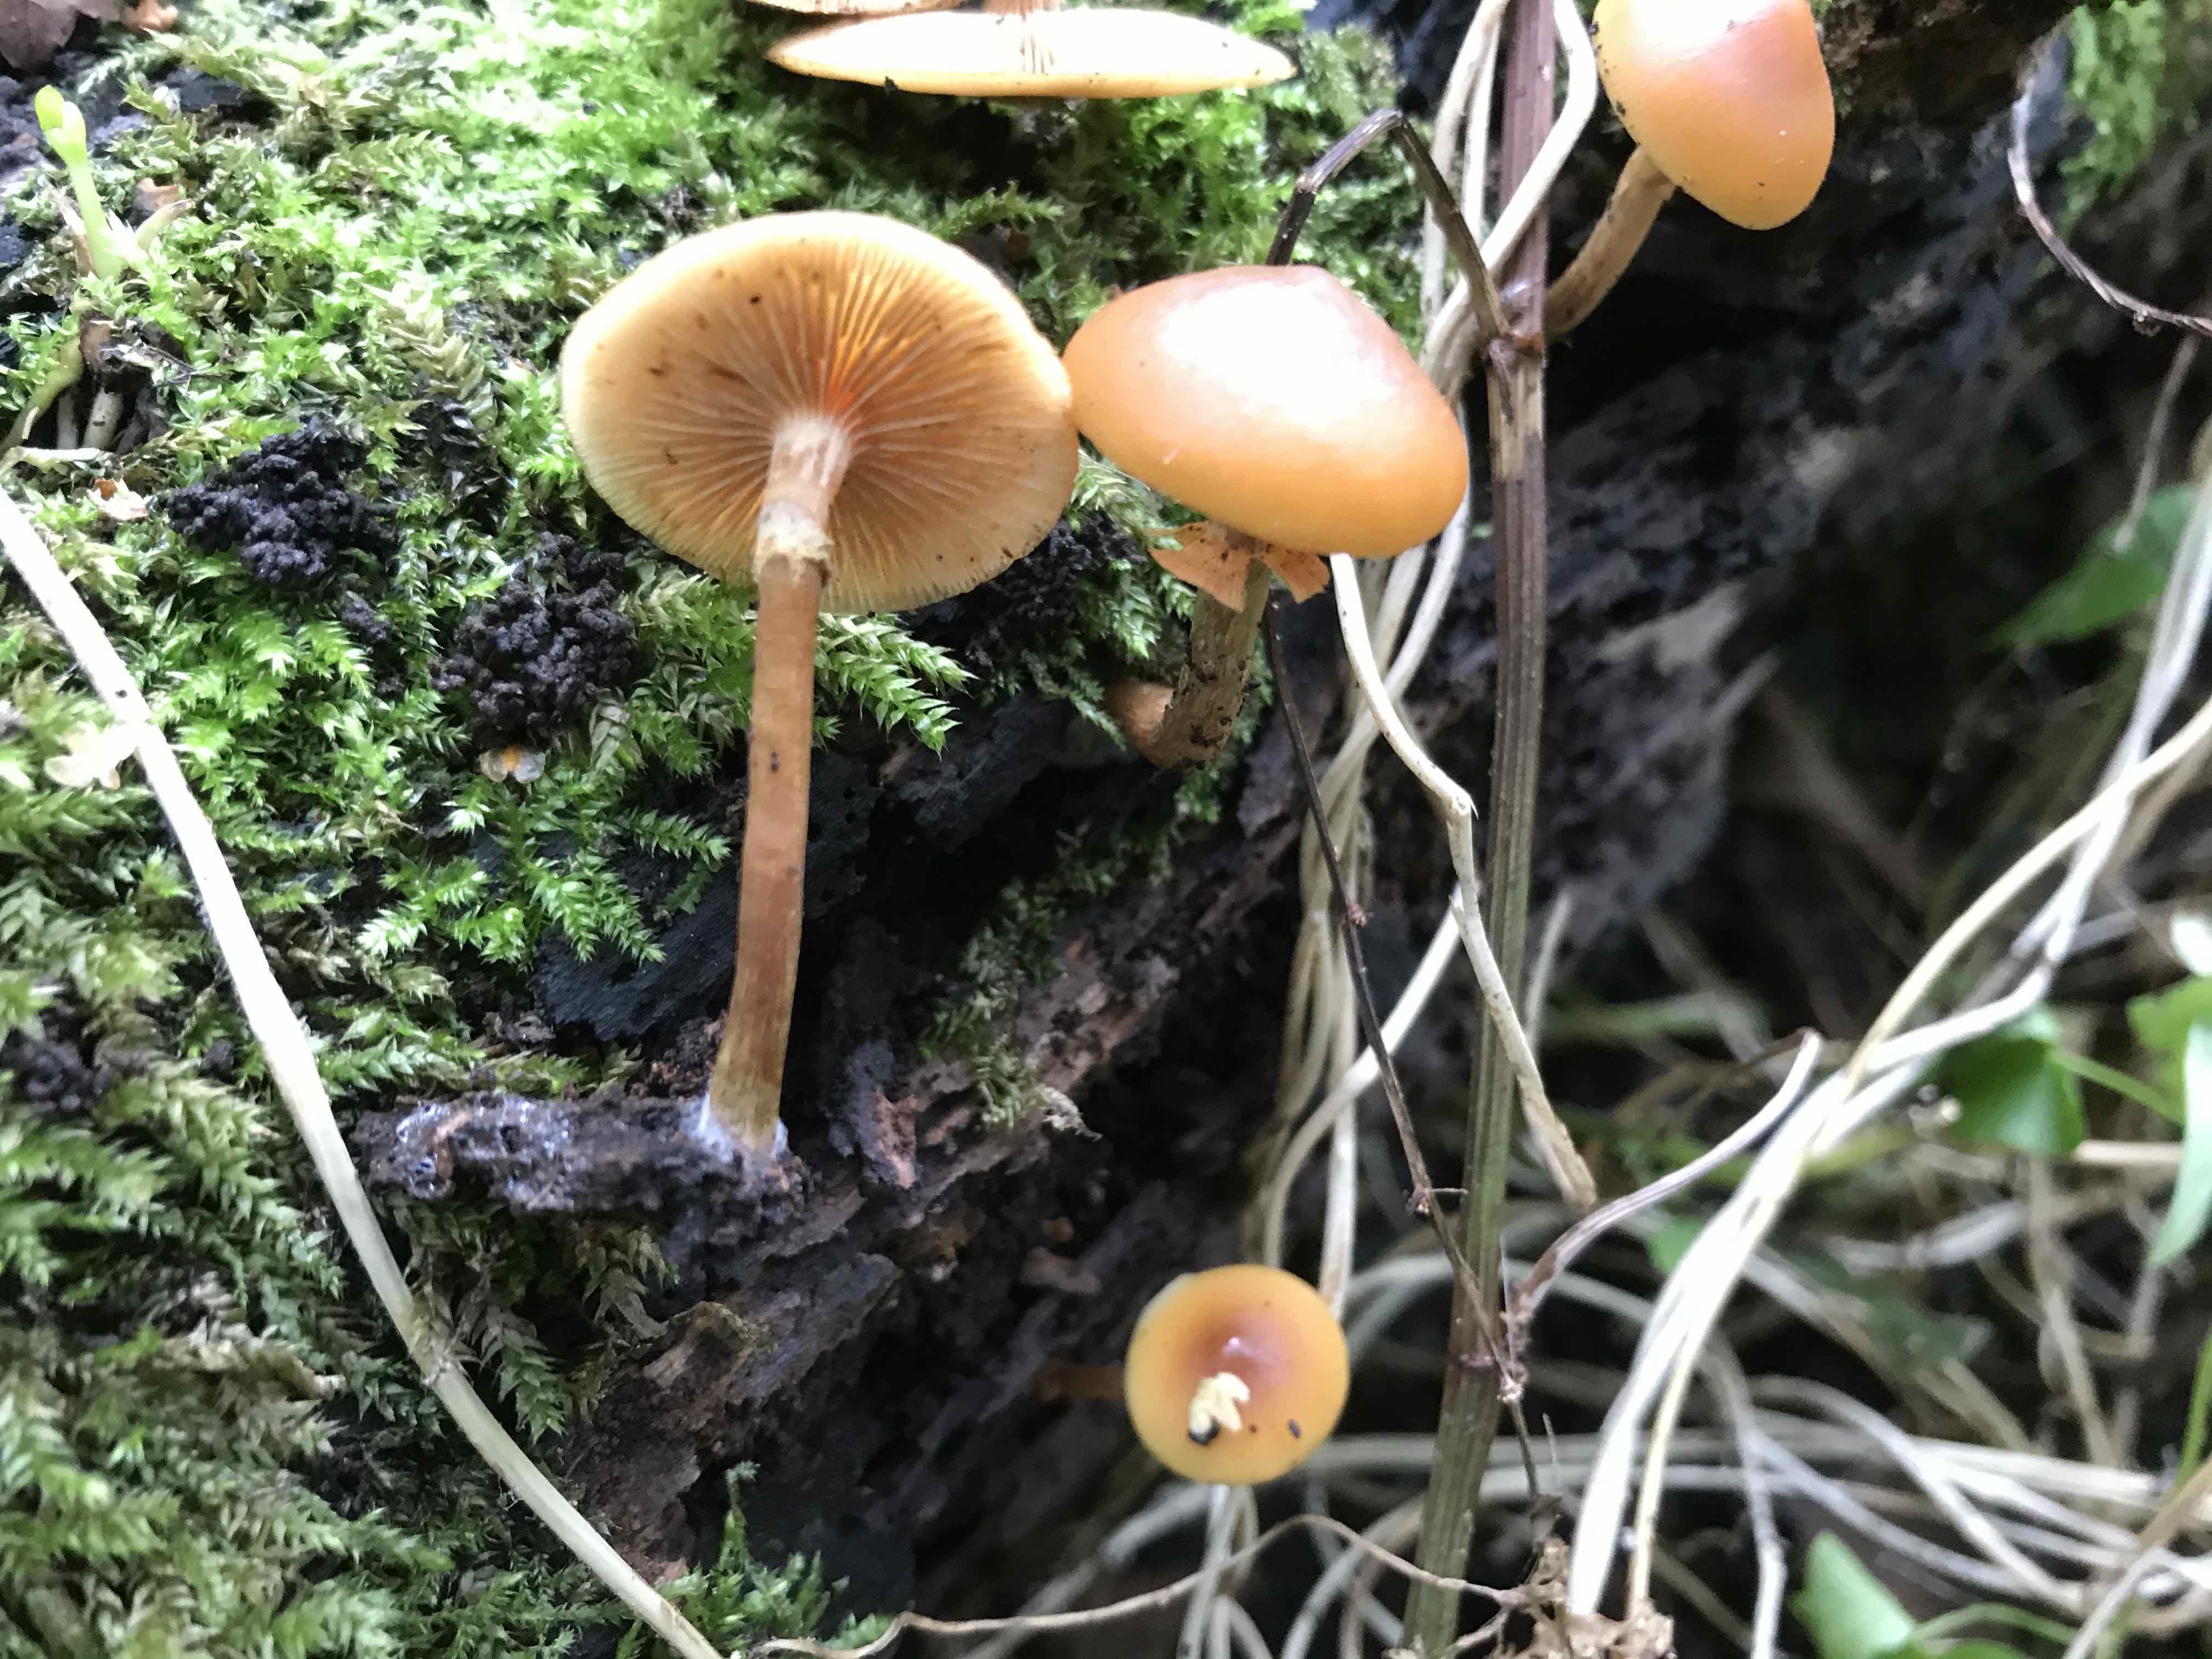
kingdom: Fungi
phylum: Basidiomycota
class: Agaricomycetes
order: Agaricales
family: Hymenogastraceae
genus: Galerina
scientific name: Galerina marginata
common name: randbæltet hjelmhat
